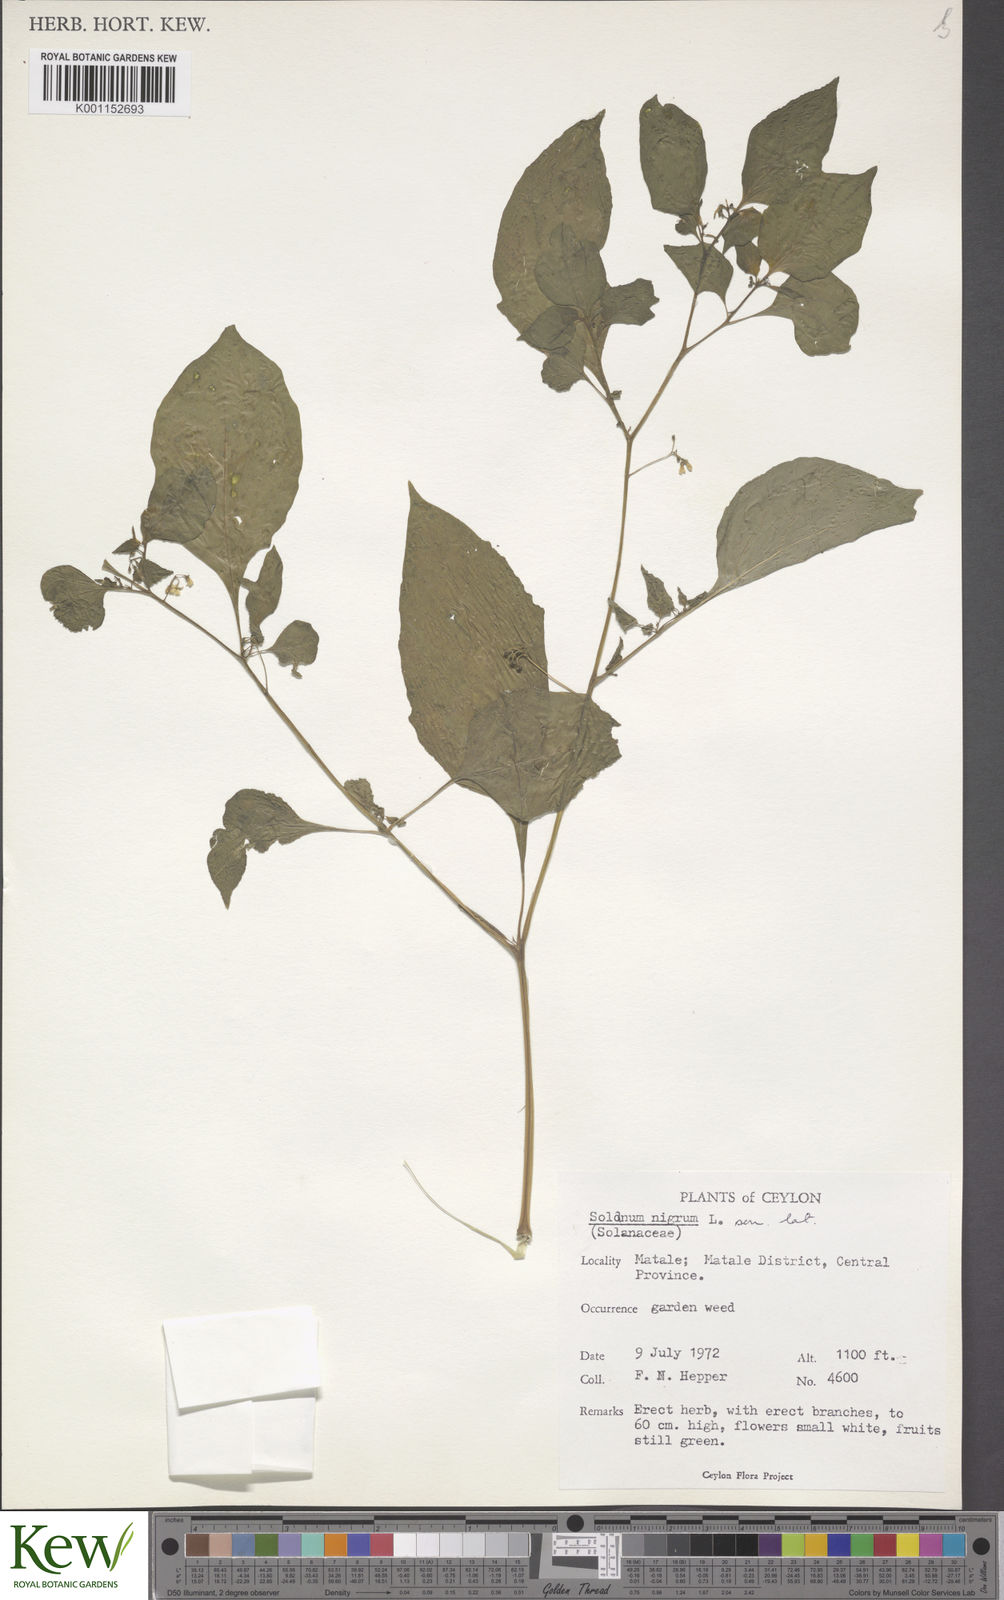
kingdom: Plantae
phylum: Tracheophyta
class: Magnoliopsida
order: Solanales
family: Solanaceae
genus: Solanum
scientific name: Solanum nigrum
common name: Black nightshade
